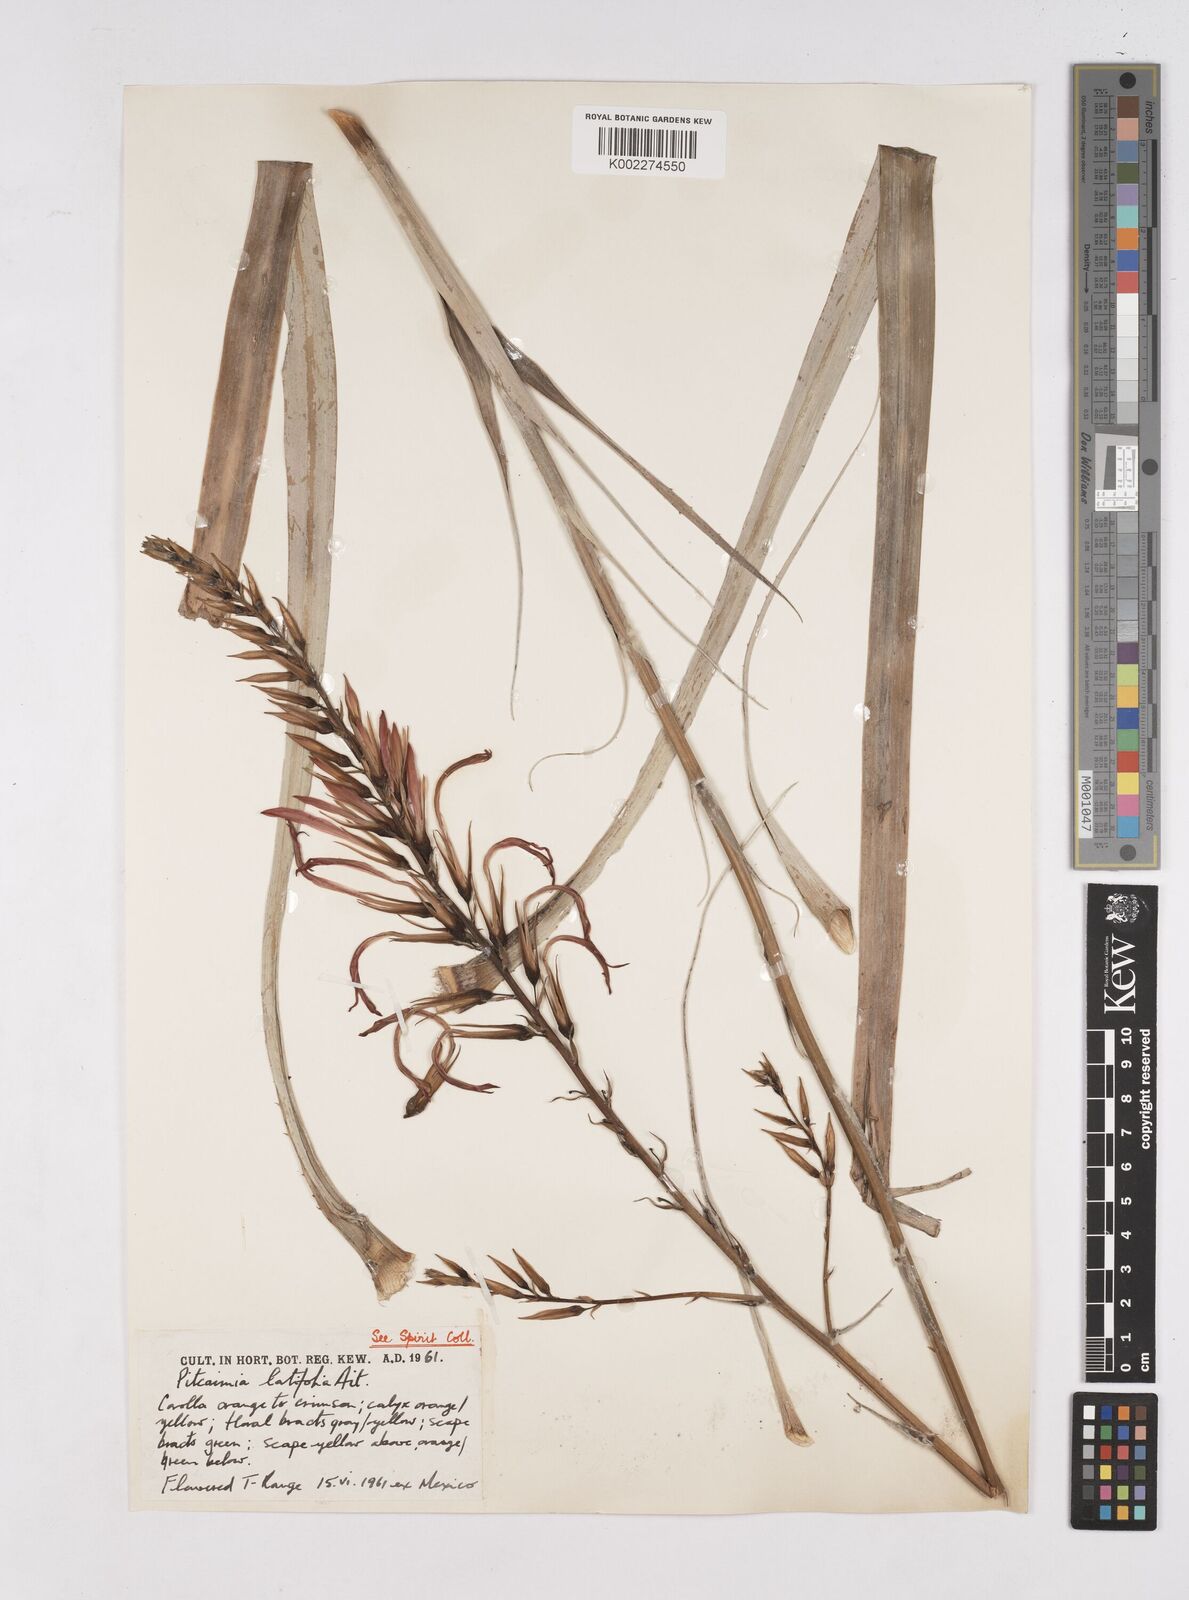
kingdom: Plantae
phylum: Tracheophyta
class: Liliopsida
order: Poales
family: Bromeliaceae
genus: Pitcairnia
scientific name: Pitcairnia angustifolia
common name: Clapper
